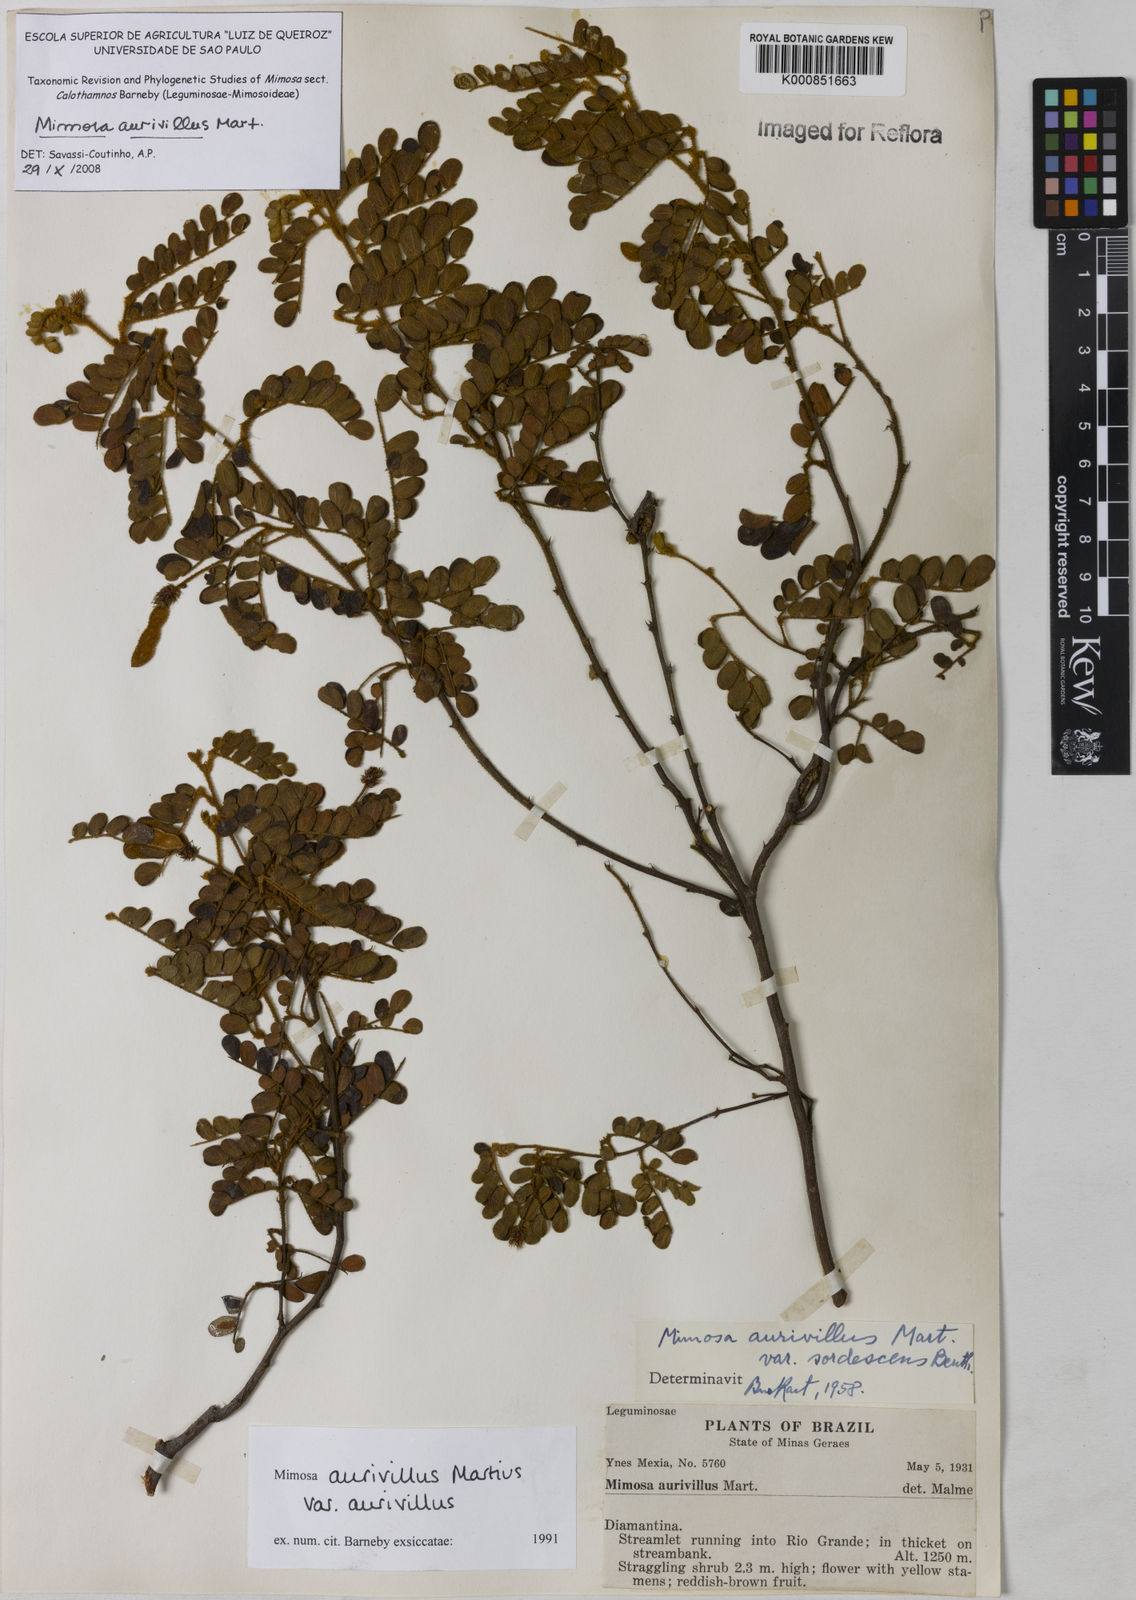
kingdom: Plantae
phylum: Tracheophyta
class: Magnoliopsida
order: Fabales
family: Fabaceae
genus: Mimosa
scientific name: Mimosa aurivillus
